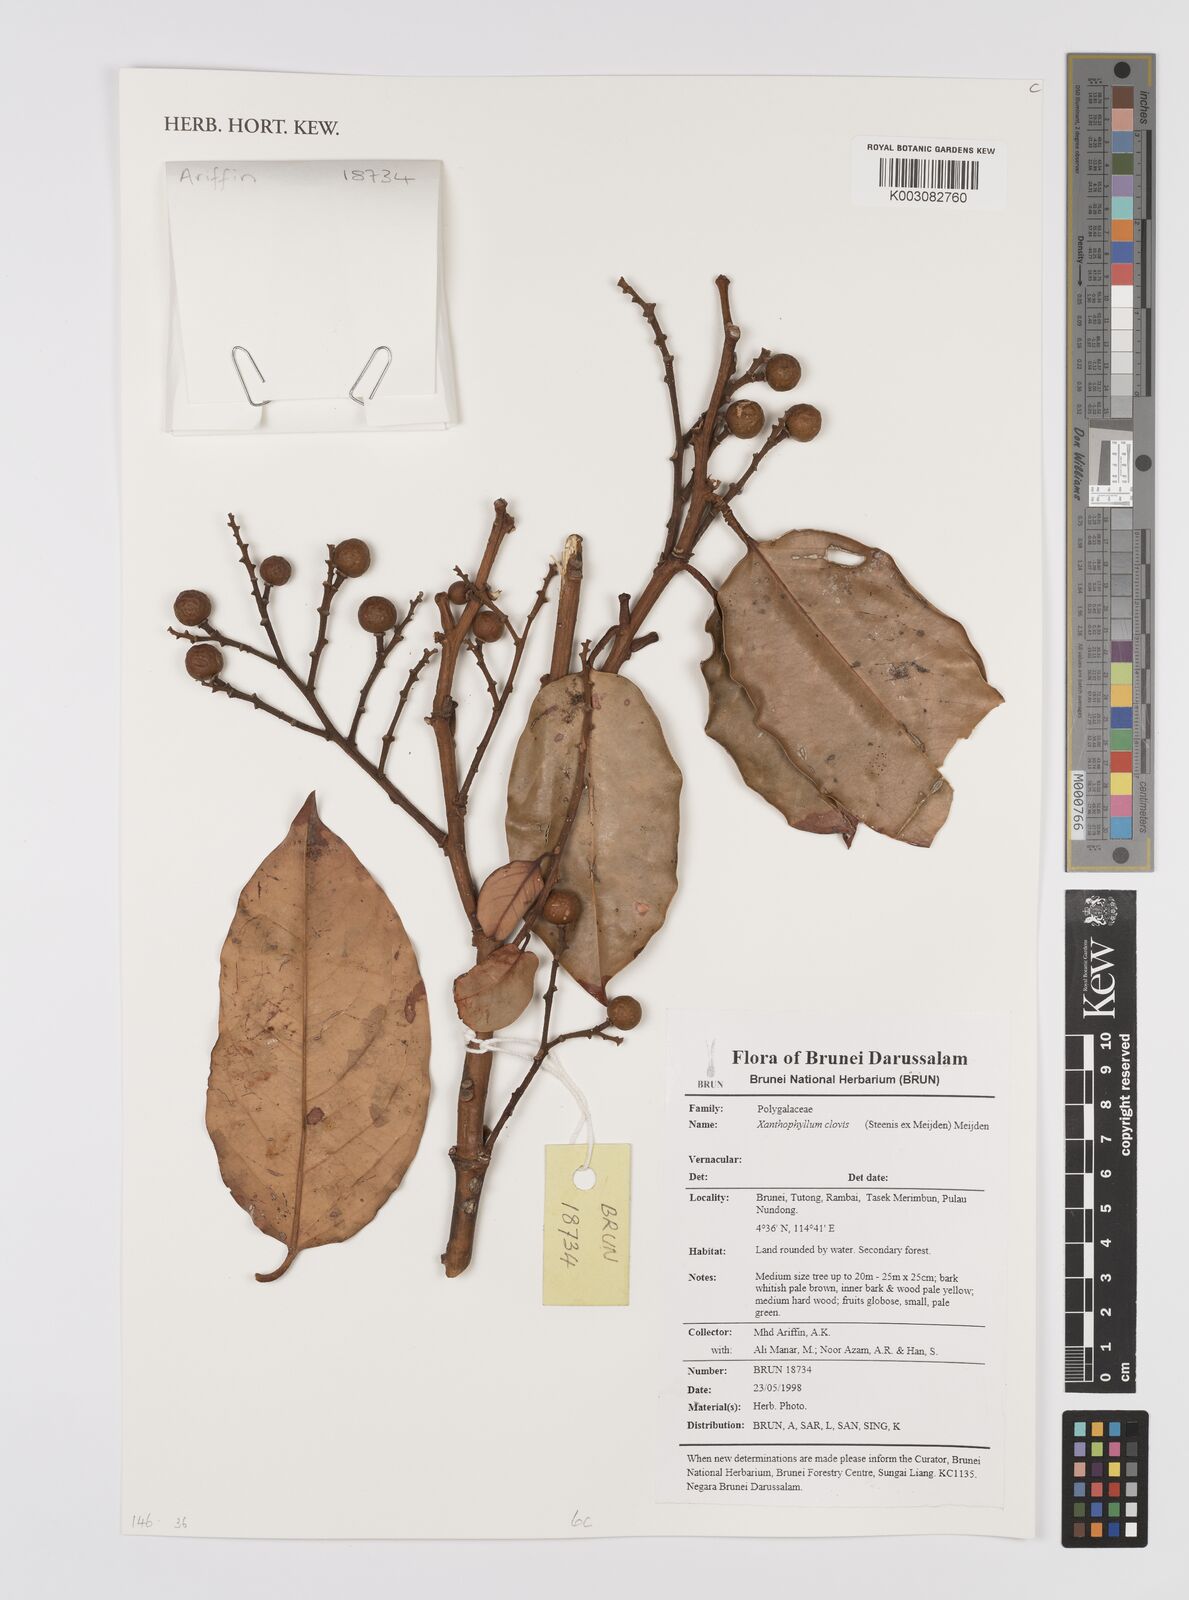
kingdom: Plantae
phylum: Tracheophyta
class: Magnoliopsida
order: Fabales
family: Polygalaceae
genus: Xanthophyllum
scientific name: Xanthophyllum clovis
